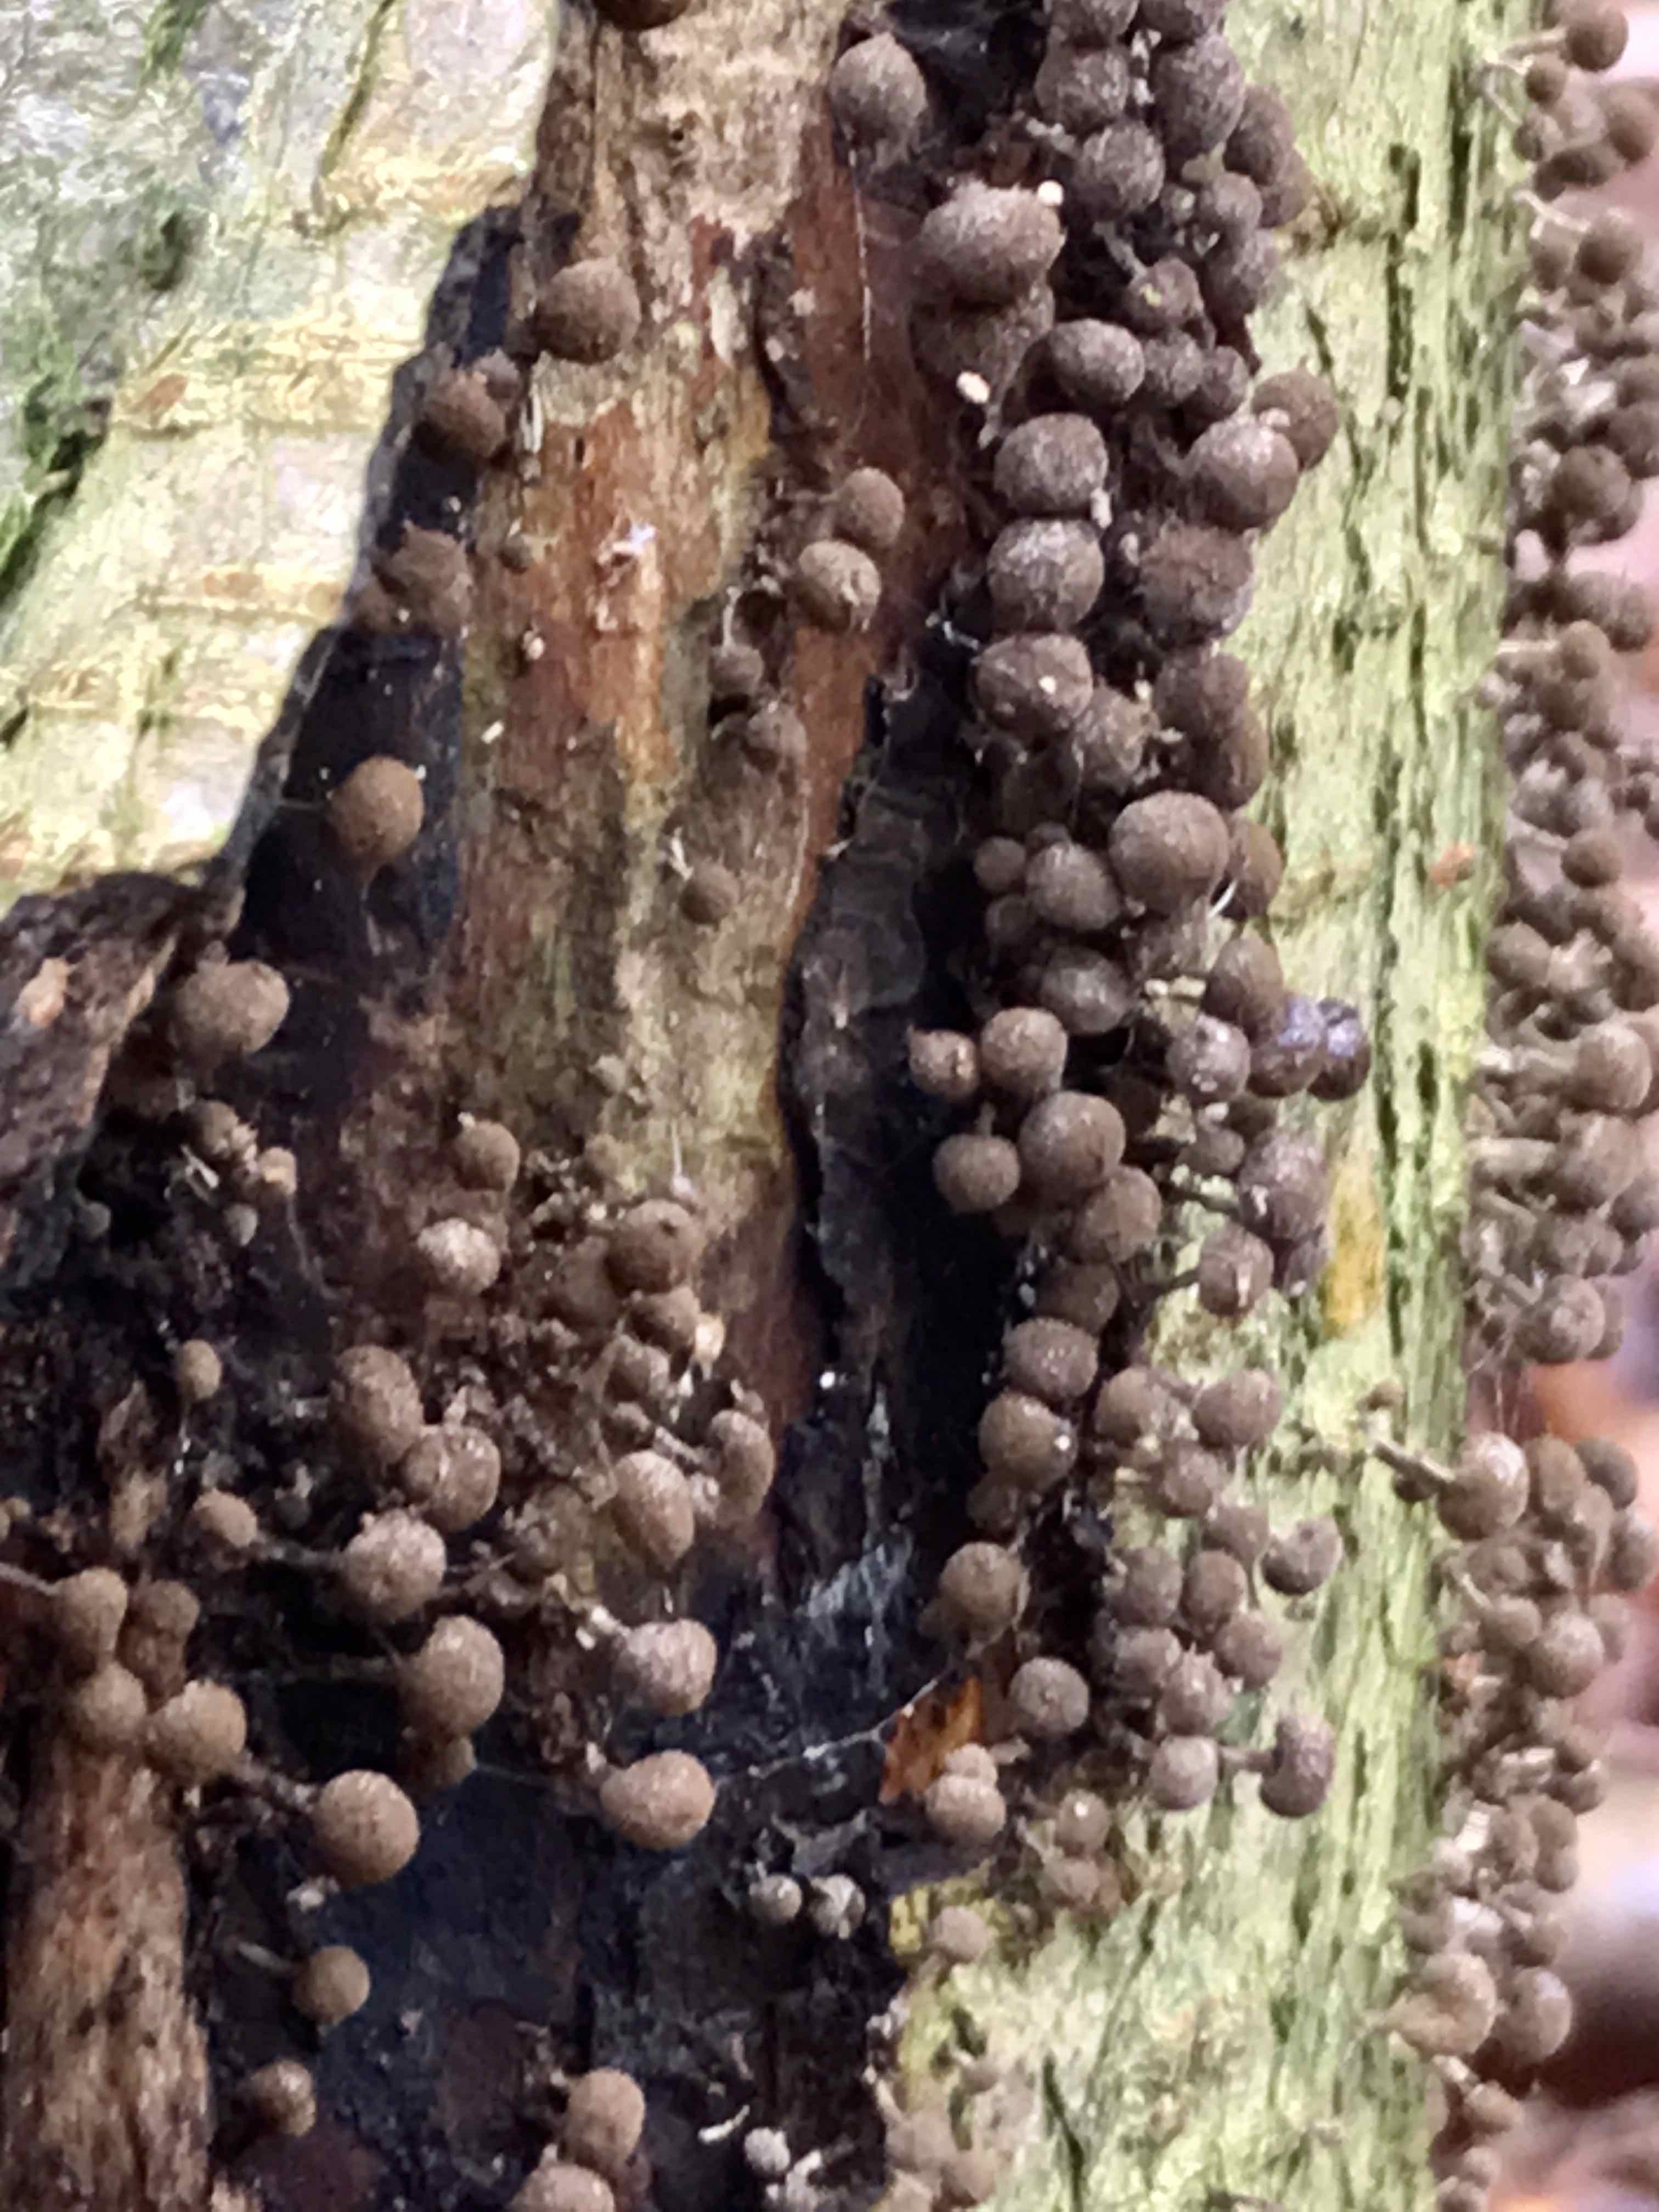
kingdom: Fungi
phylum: Basidiomycota
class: Atractiellomycetes
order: Atractiellales
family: Phleogenaceae
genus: Phleogena
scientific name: Phleogena faginea
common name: pudderkølle
